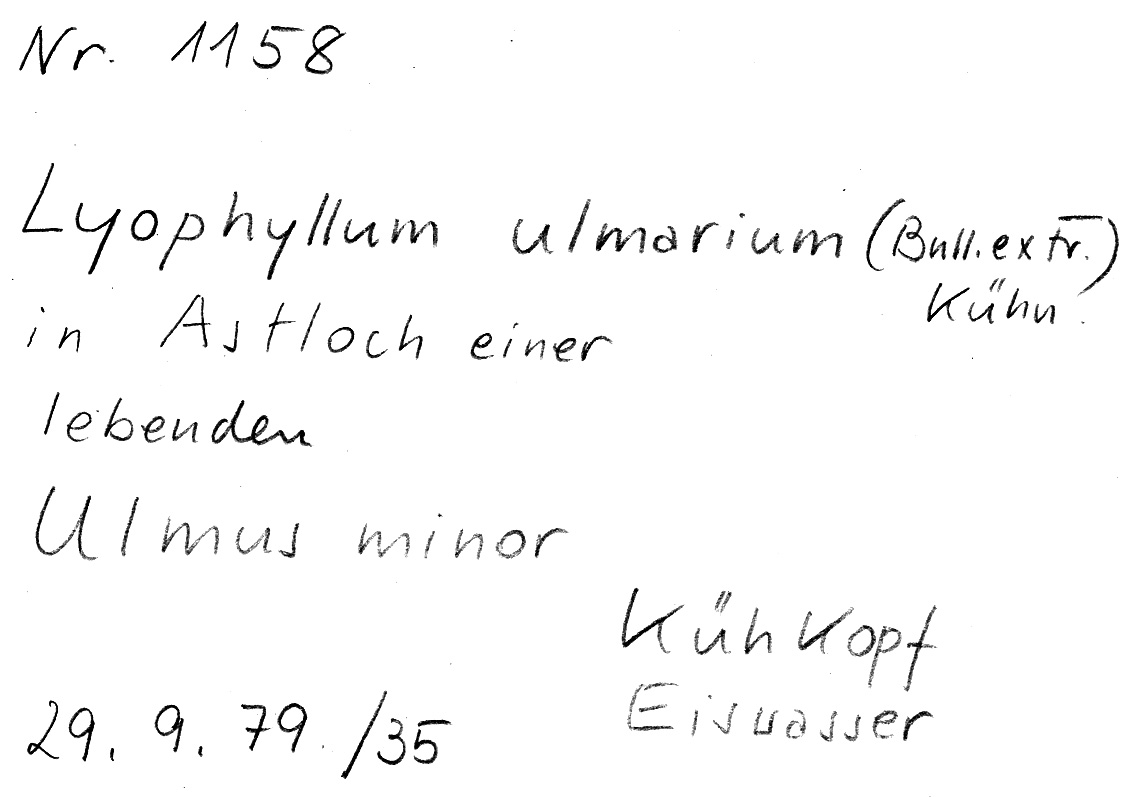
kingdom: Fungi
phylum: Basidiomycota
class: Agaricomycetes
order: Agaricales
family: Lyophyllaceae
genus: Hypsizygus
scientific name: Hypsizygus ulmarius
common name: Elm leech
